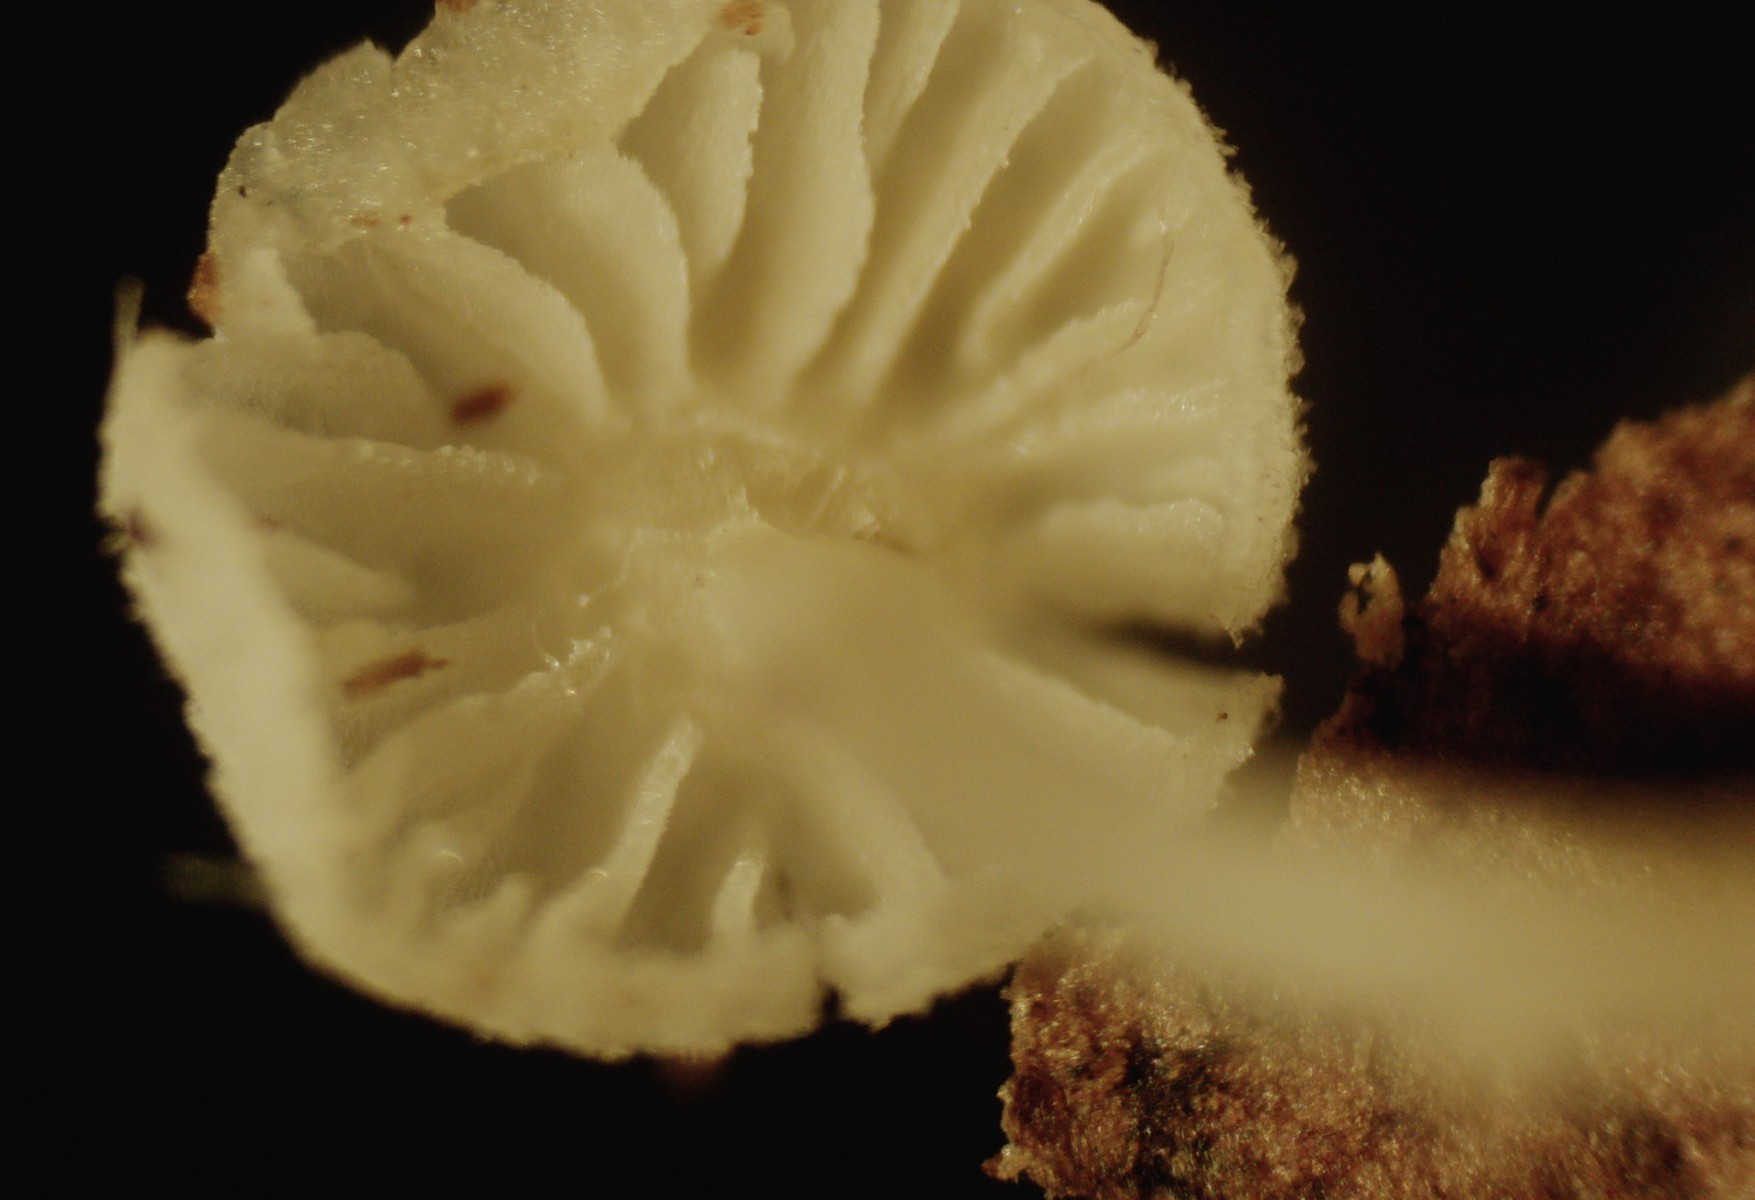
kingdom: Fungi
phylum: Basidiomycota
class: Agaricomycetes
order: Agaricales
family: Mycenaceae
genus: Hemimycena
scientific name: Hemimycena
